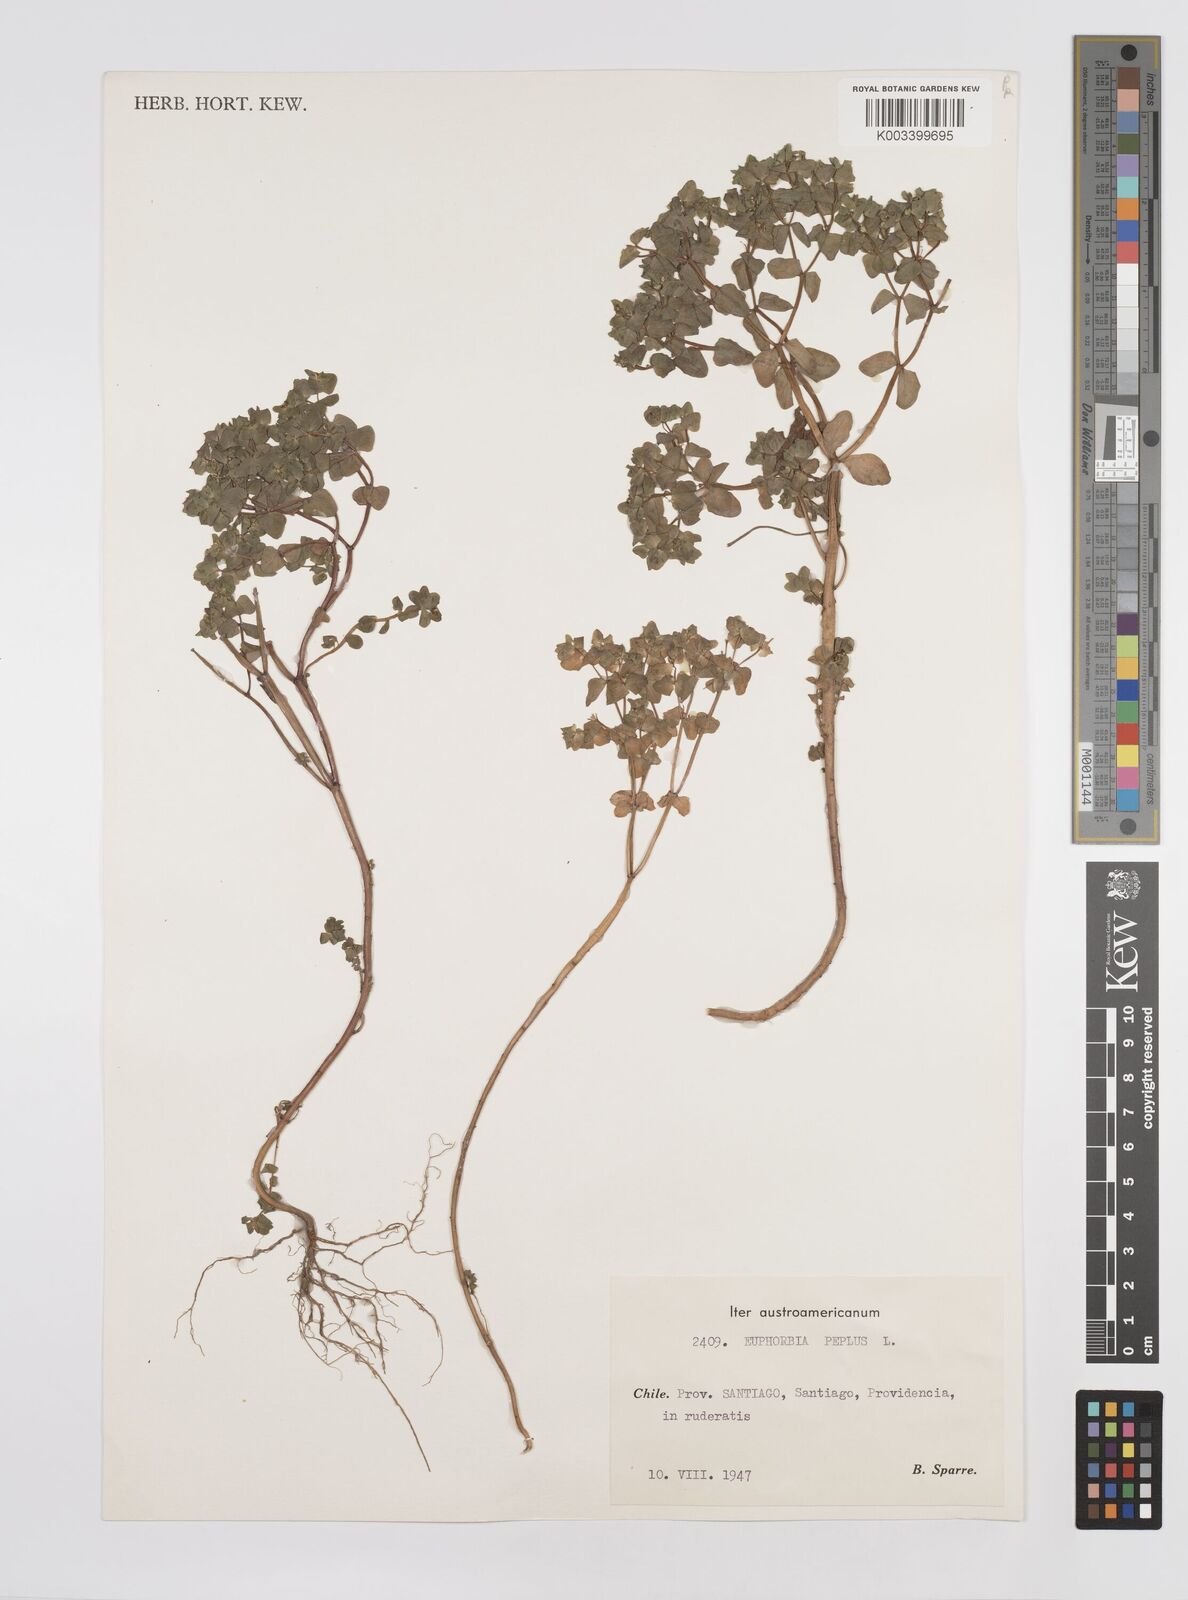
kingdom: Plantae
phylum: Tracheophyta
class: Magnoliopsida
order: Malpighiales
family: Euphorbiaceae
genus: Euphorbia
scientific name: Euphorbia peplus
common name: Petty spurge
